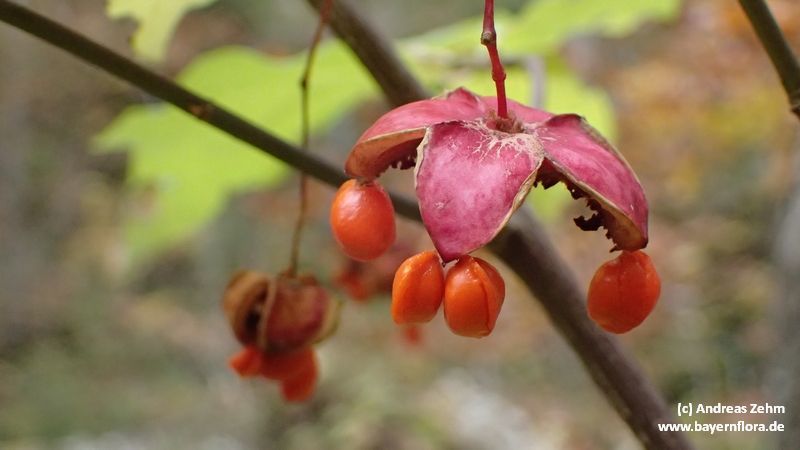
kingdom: Plantae
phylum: Tracheophyta
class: Magnoliopsida
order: Celastrales
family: Celastraceae
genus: Euonymus
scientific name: Euonymus latifolius
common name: Large-leaved spindle
